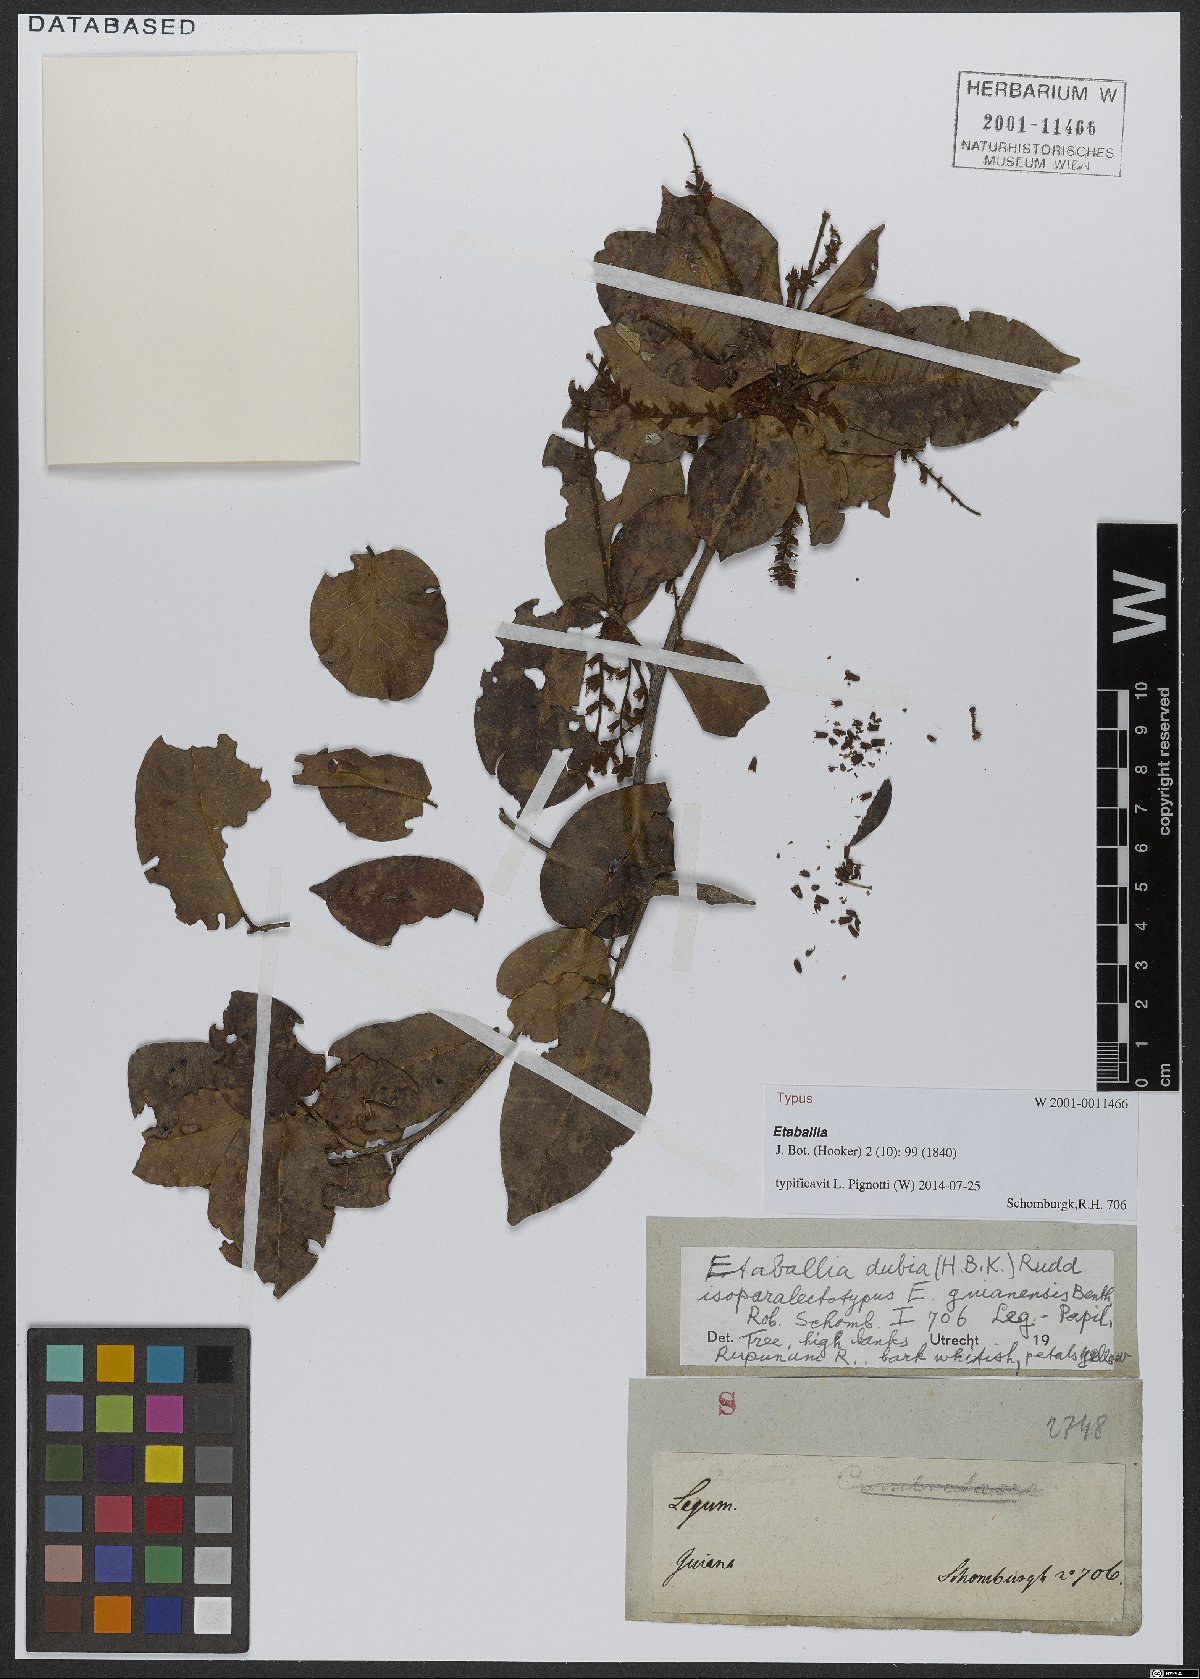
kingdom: Plantae
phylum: Tracheophyta
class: Magnoliopsida
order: Fabales
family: Fabaceae
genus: Pterocarpus
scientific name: Pterocarpus dubius
